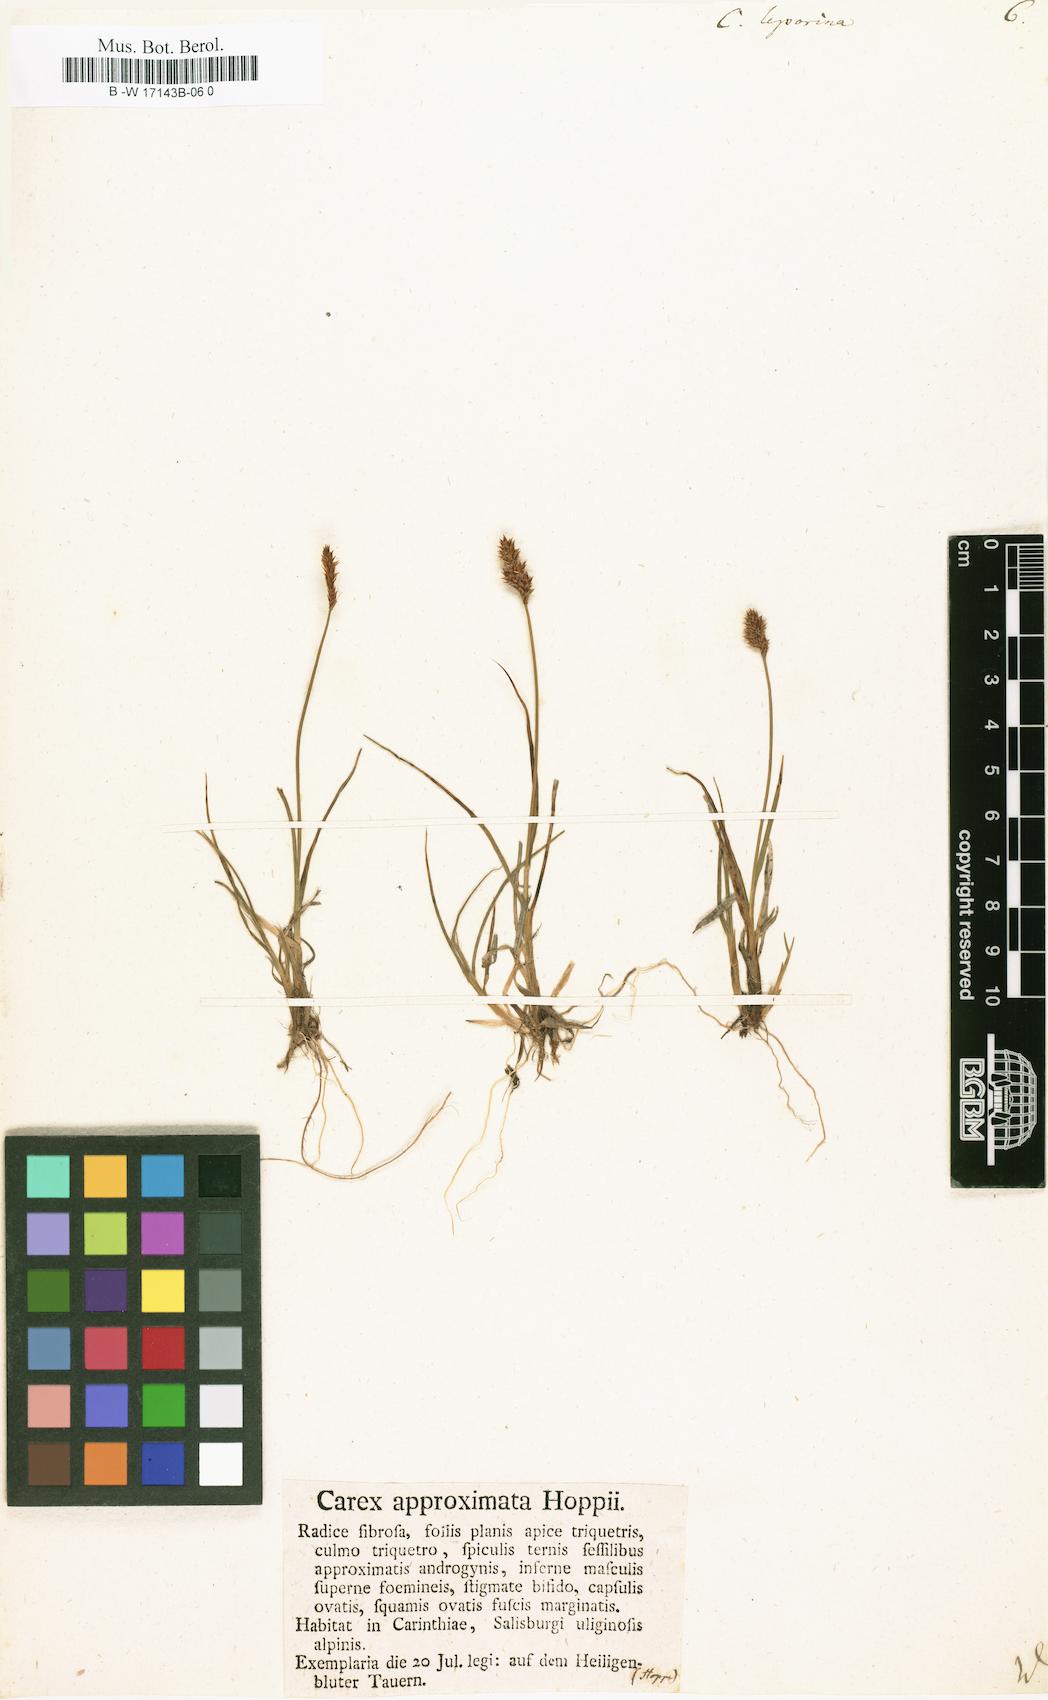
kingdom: Plantae
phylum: Tracheophyta
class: Liliopsida
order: Poales
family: Cyperaceae
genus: Carex
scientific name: Carex leporina
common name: Oval sedge
